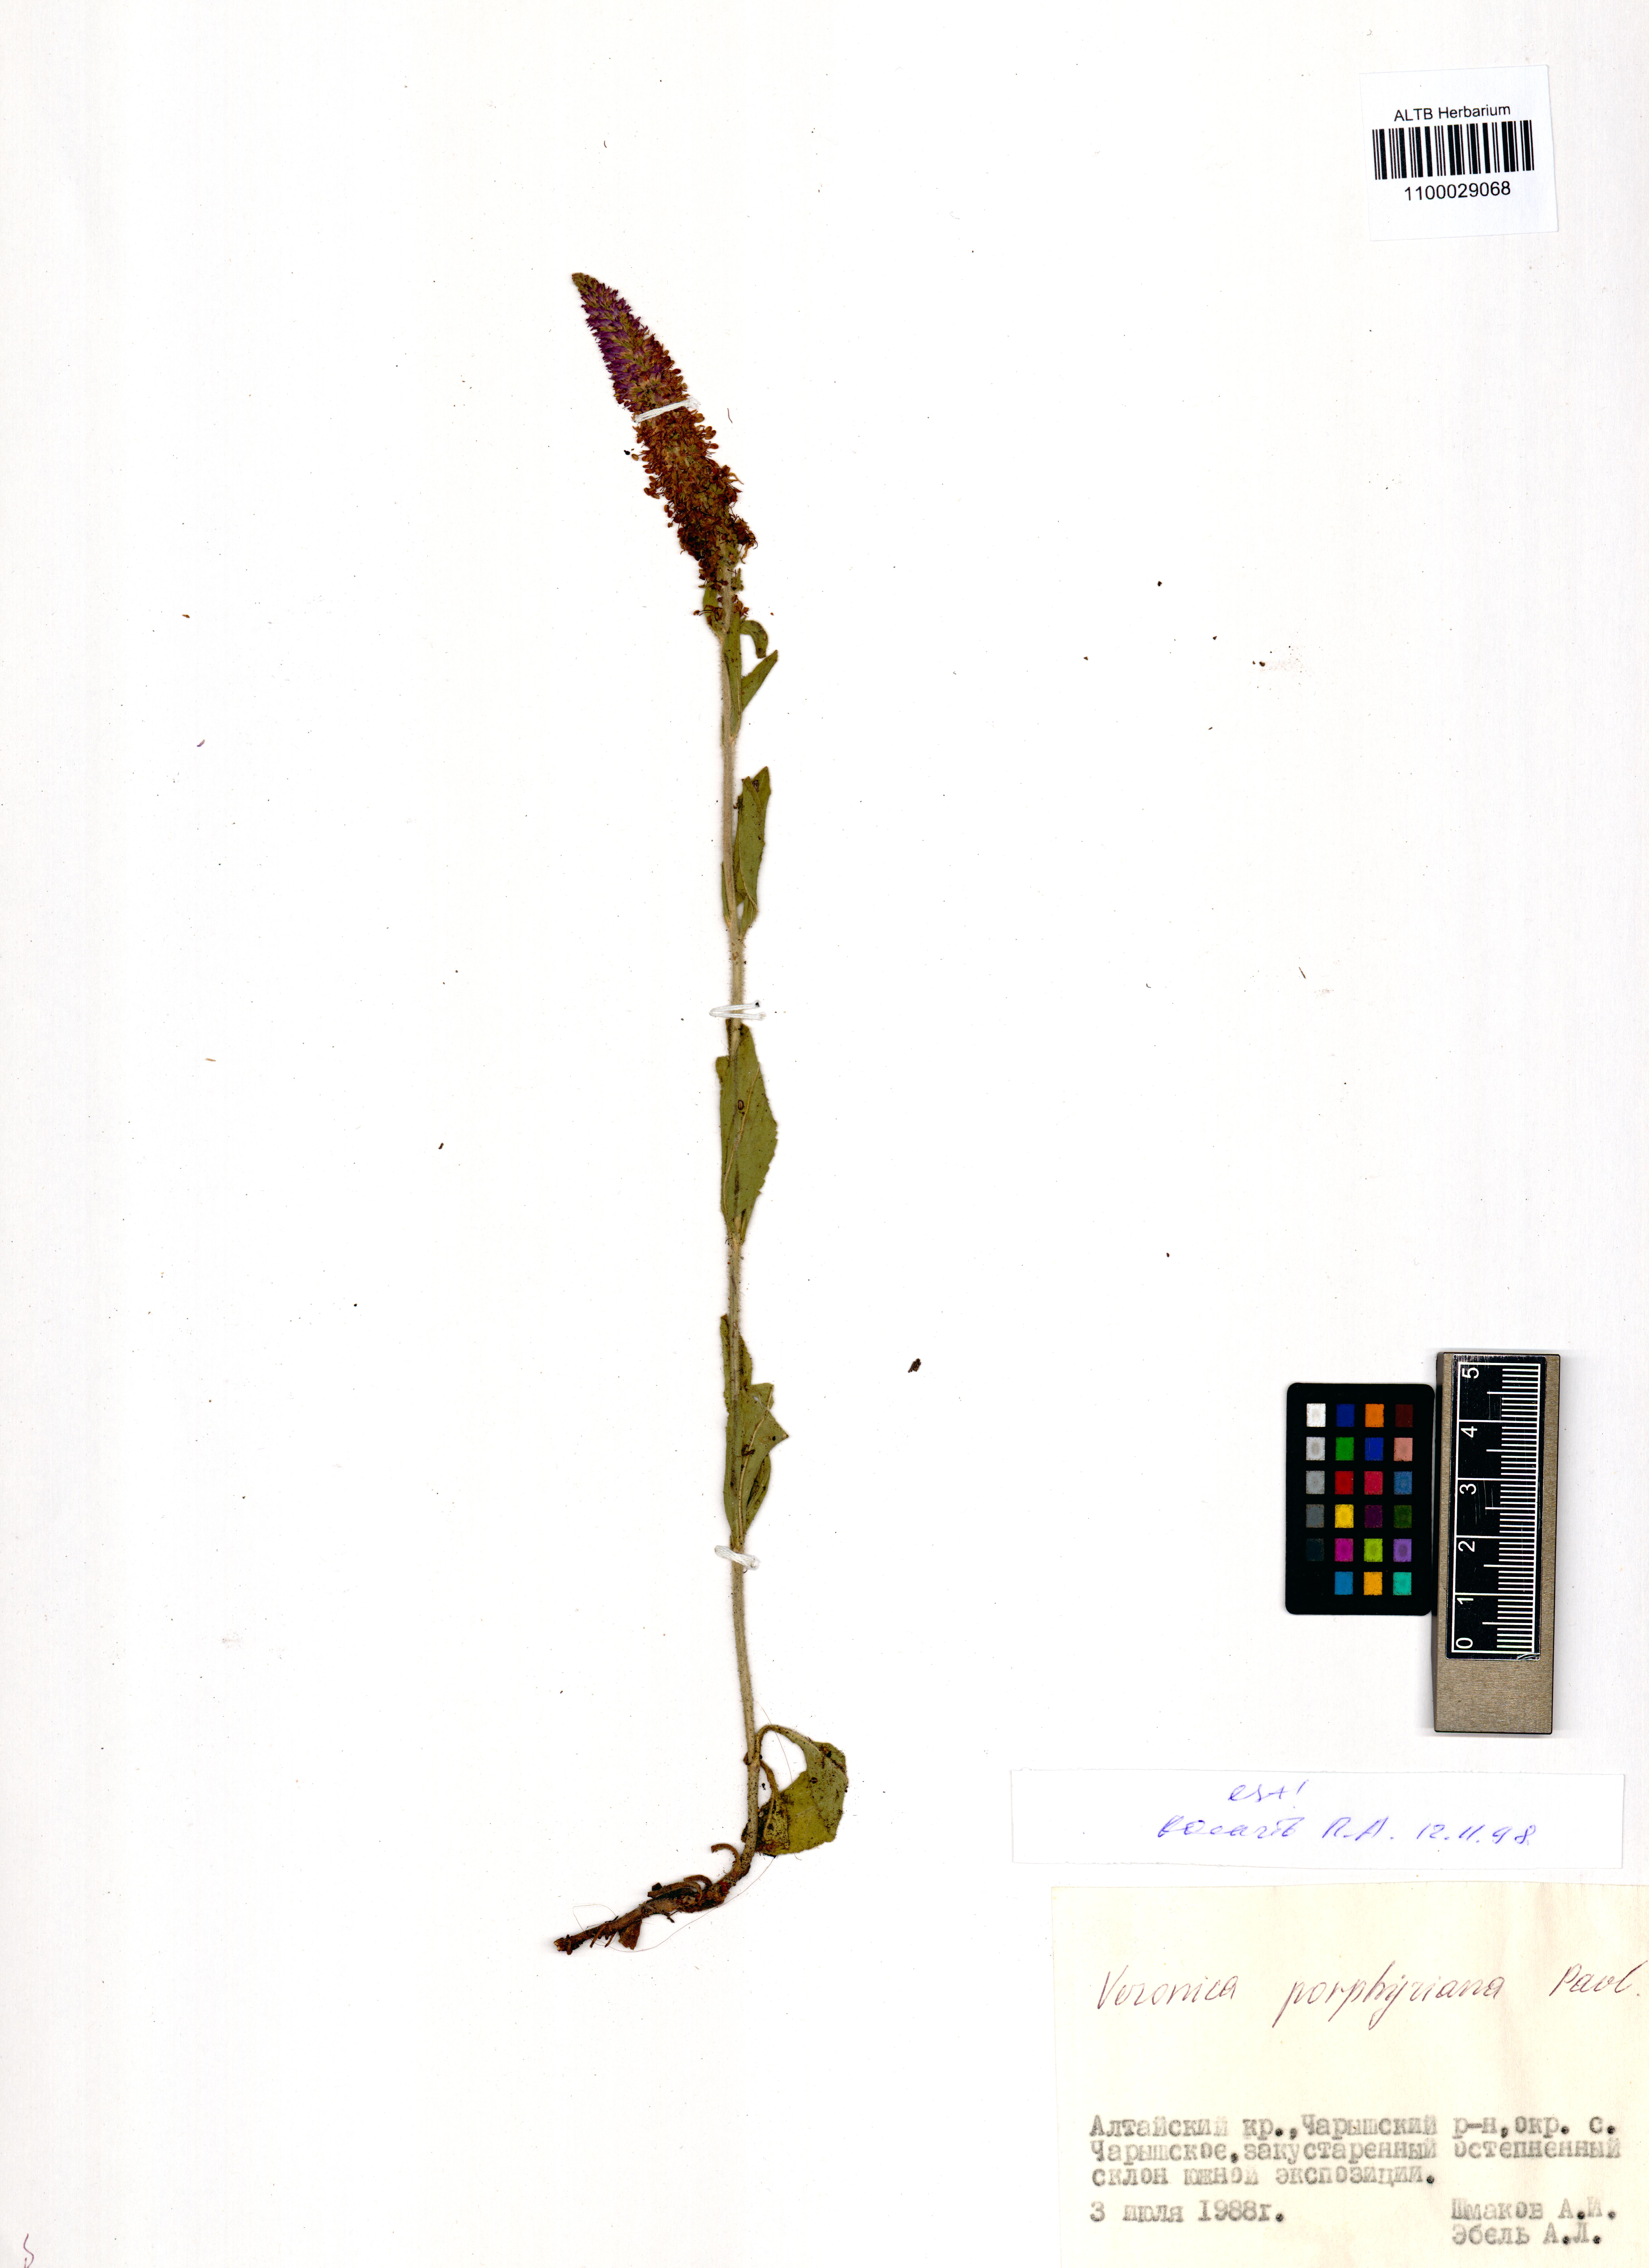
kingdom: Plantae
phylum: Tracheophyta
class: Magnoliopsida
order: Lamiales
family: Plantaginaceae
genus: Veronica
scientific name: Veronica porphyriana
